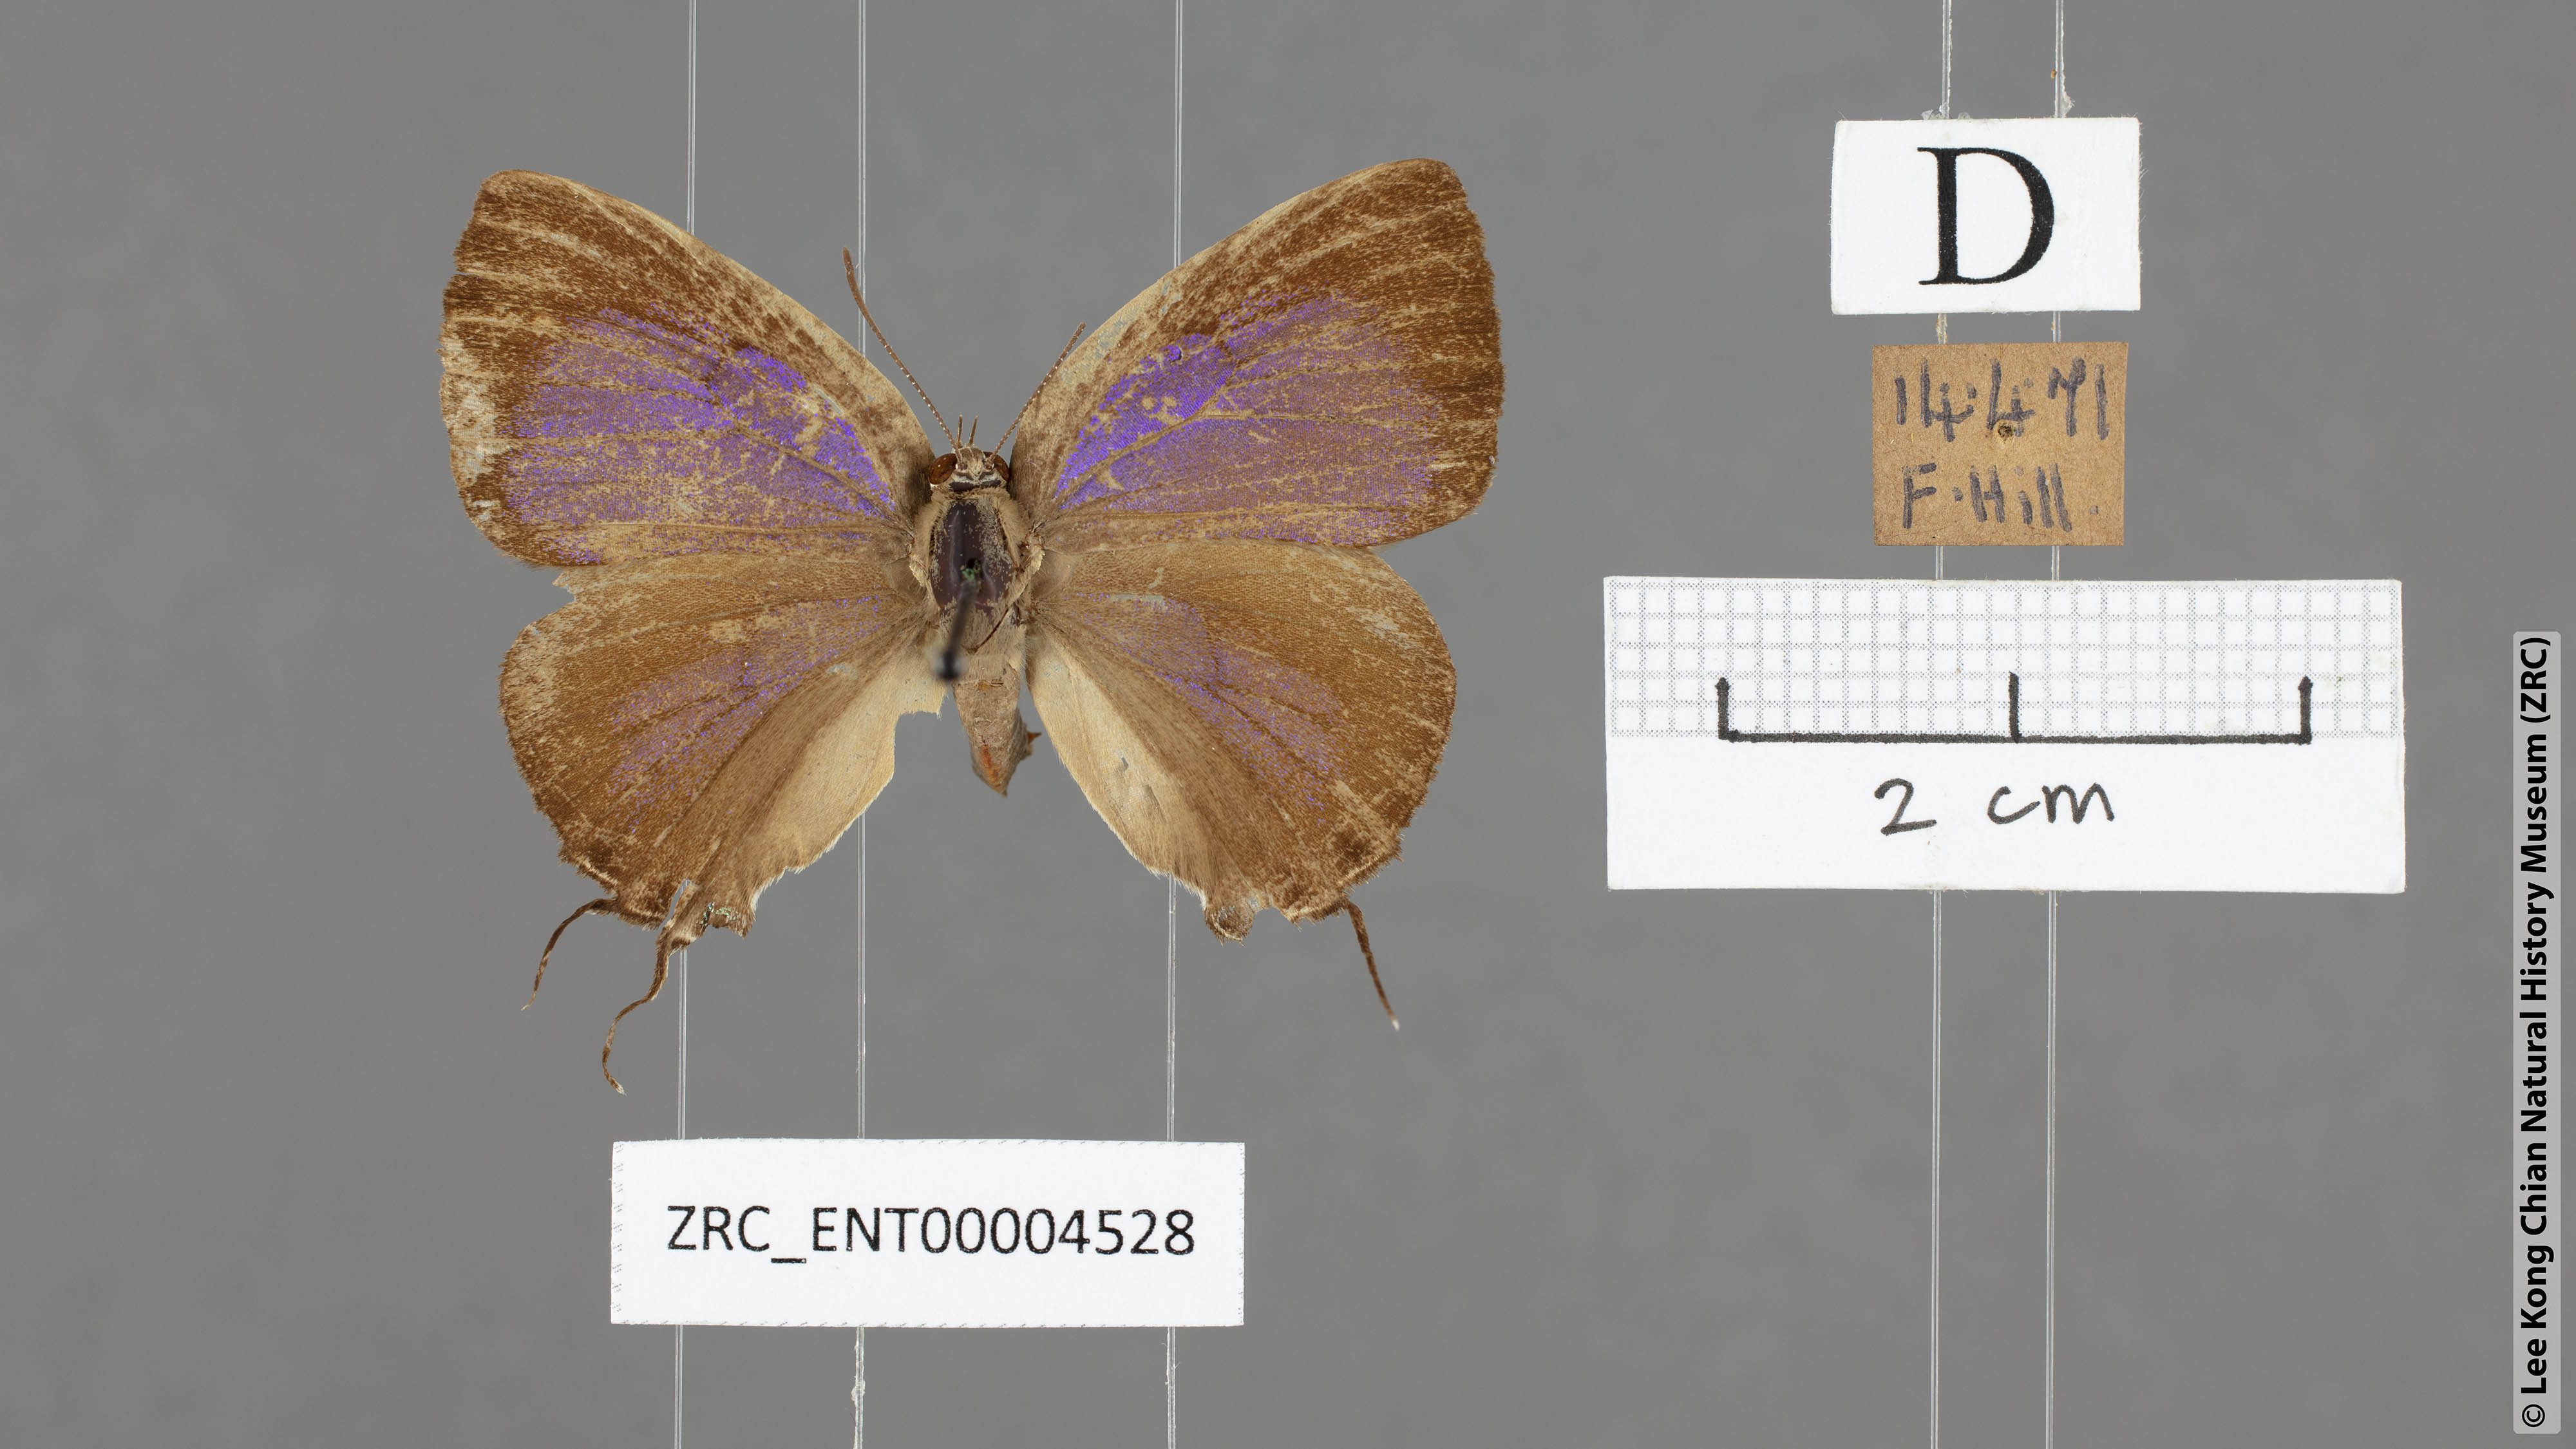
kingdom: Animalia
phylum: Arthropoda
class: Insecta
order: Lepidoptera
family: Lycaenidae
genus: Remelana
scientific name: Remelana jangala
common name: Chocolate royal
